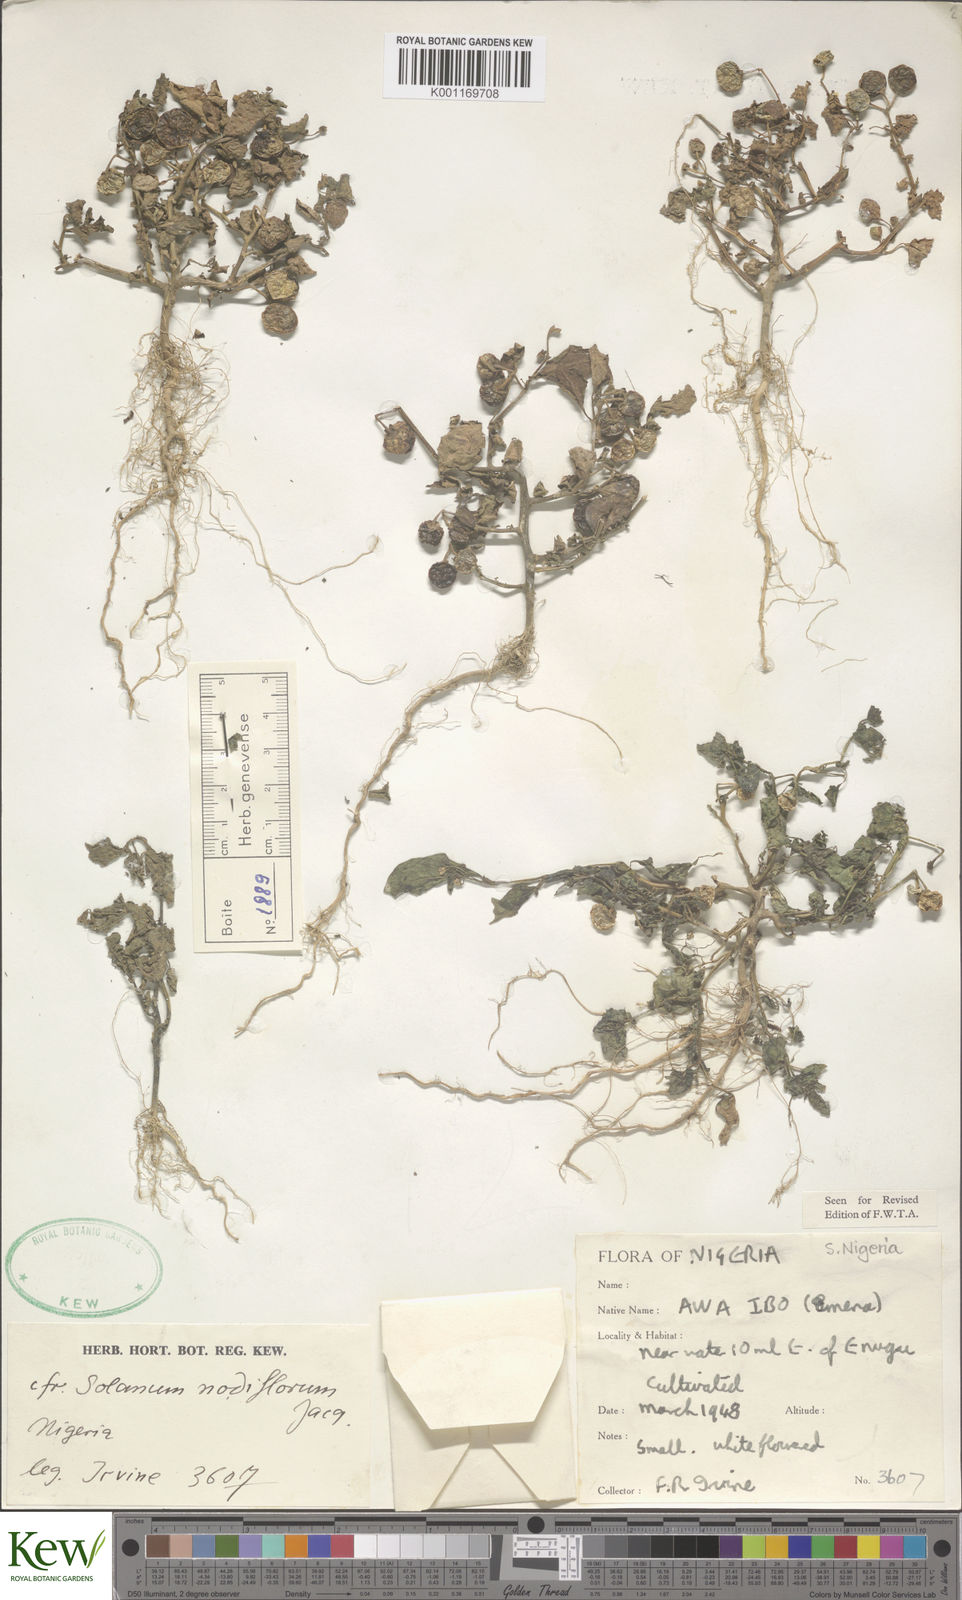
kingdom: Plantae
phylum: Tracheophyta
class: Magnoliopsida
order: Solanales
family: Solanaceae
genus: Solanum
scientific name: Solanum scabrum
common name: Garden-huckleberry
